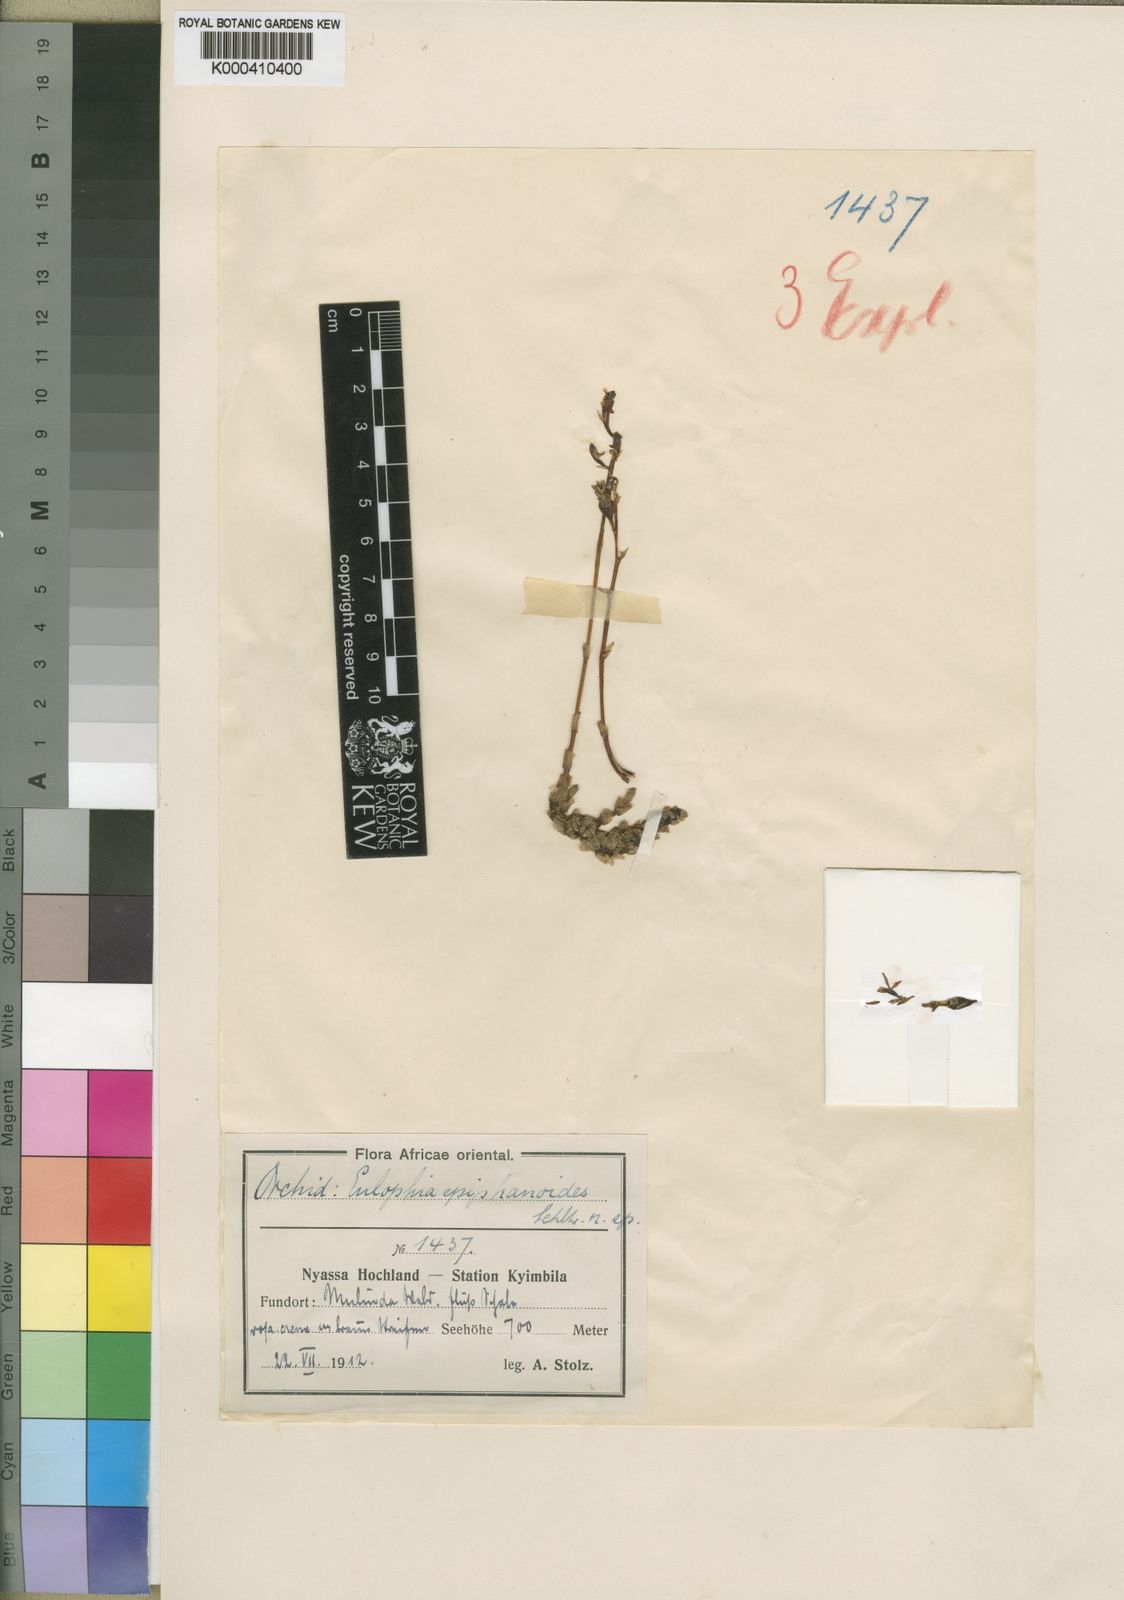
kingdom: Plantae
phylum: Tracheophyta
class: Liliopsida
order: Asparagales
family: Orchidaceae
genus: Eulophia
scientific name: Eulophia epiphanoides
